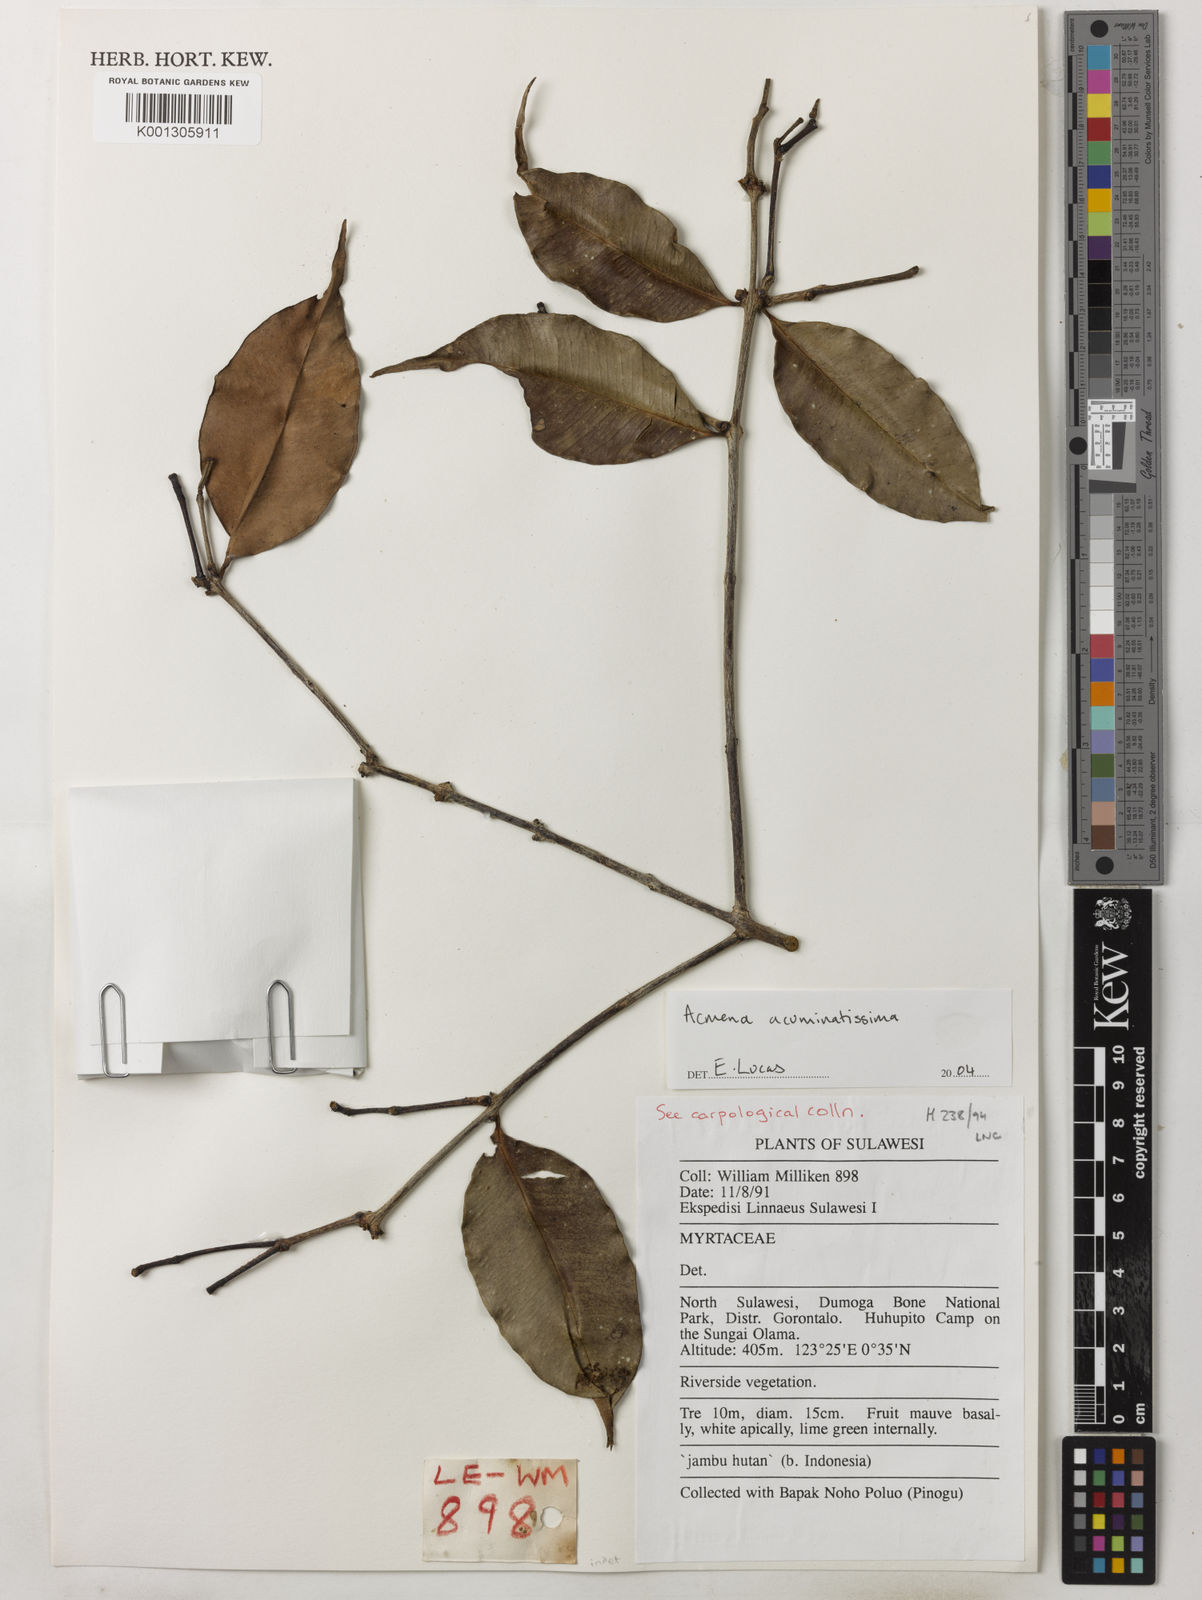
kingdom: Plantae
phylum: Tracheophyta
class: Magnoliopsida
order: Myrtales
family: Myrtaceae
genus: Syzygium
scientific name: Syzygium acuminatissimum
